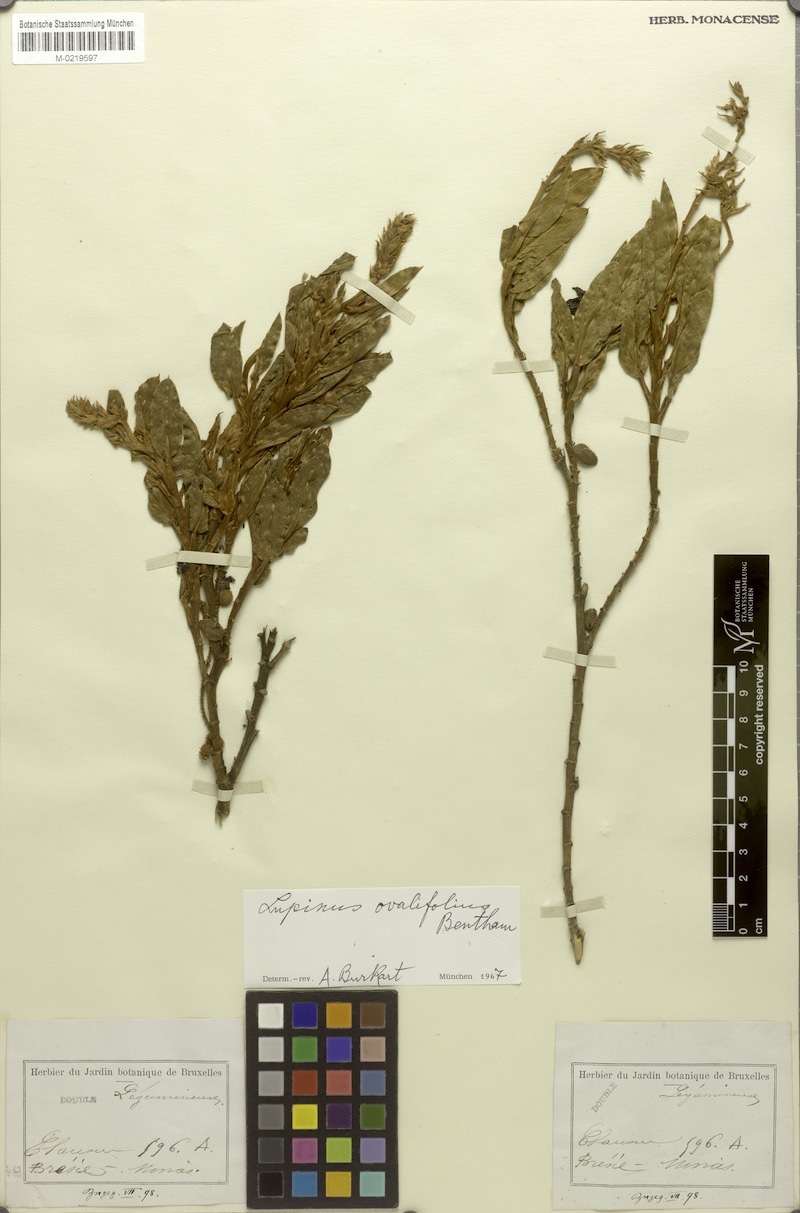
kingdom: Plantae
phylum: Tracheophyta
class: Magnoliopsida
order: Fabales
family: Fabaceae
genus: Lupinus
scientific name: Lupinus ovalifolius
